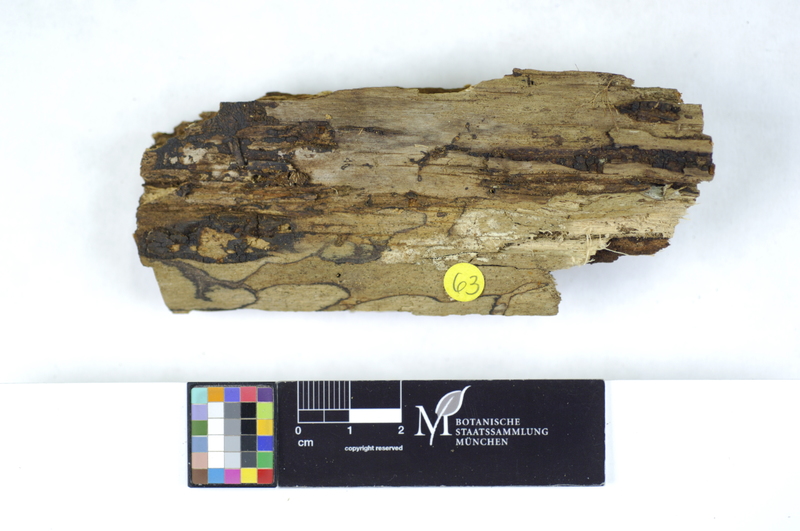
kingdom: Plantae
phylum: Tracheophyta
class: Magnoliopsida
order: Fagales
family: Betulaceae
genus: Alnus
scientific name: Alnus
